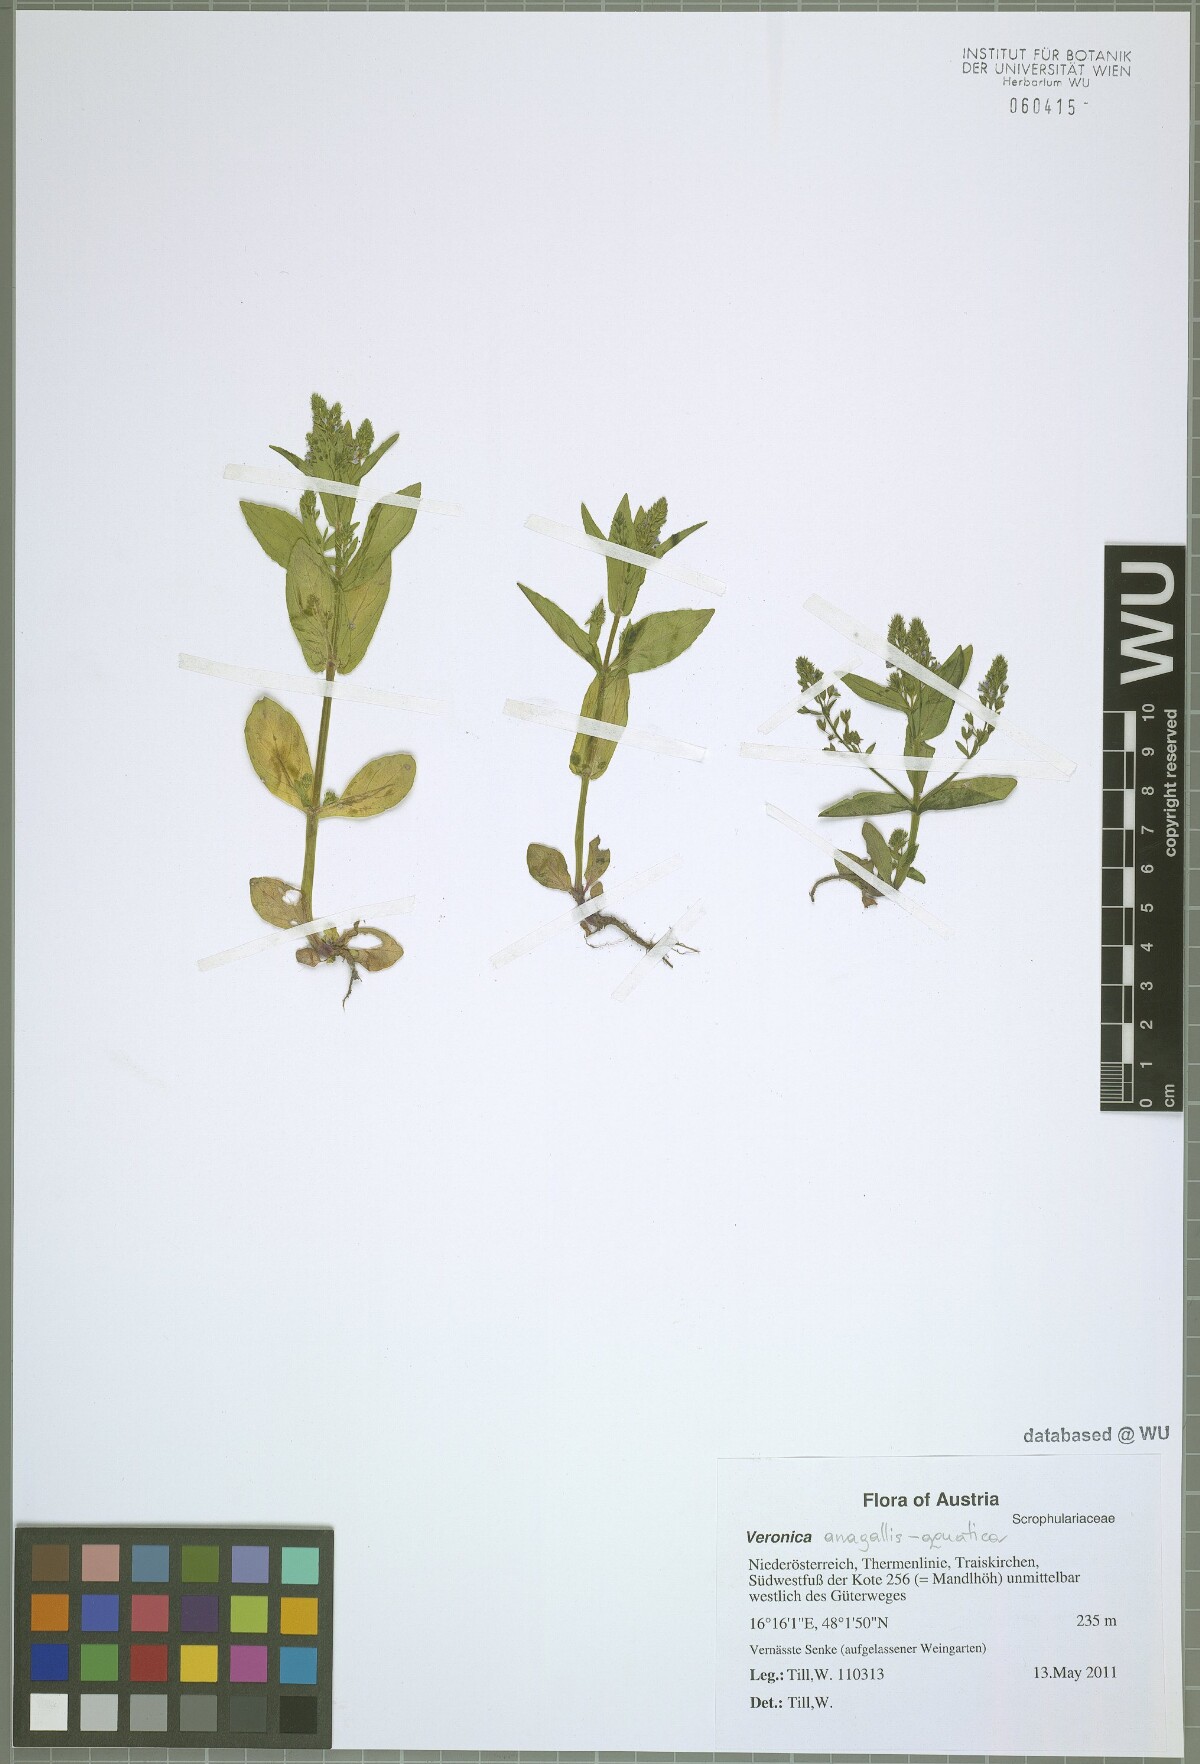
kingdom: Plantae
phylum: Tracheophyta
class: Magnoliopsida
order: Lamiales
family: Plantaginaceae
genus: Veronica
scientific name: Veronica anagallis-aquatica
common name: Water speedwell
